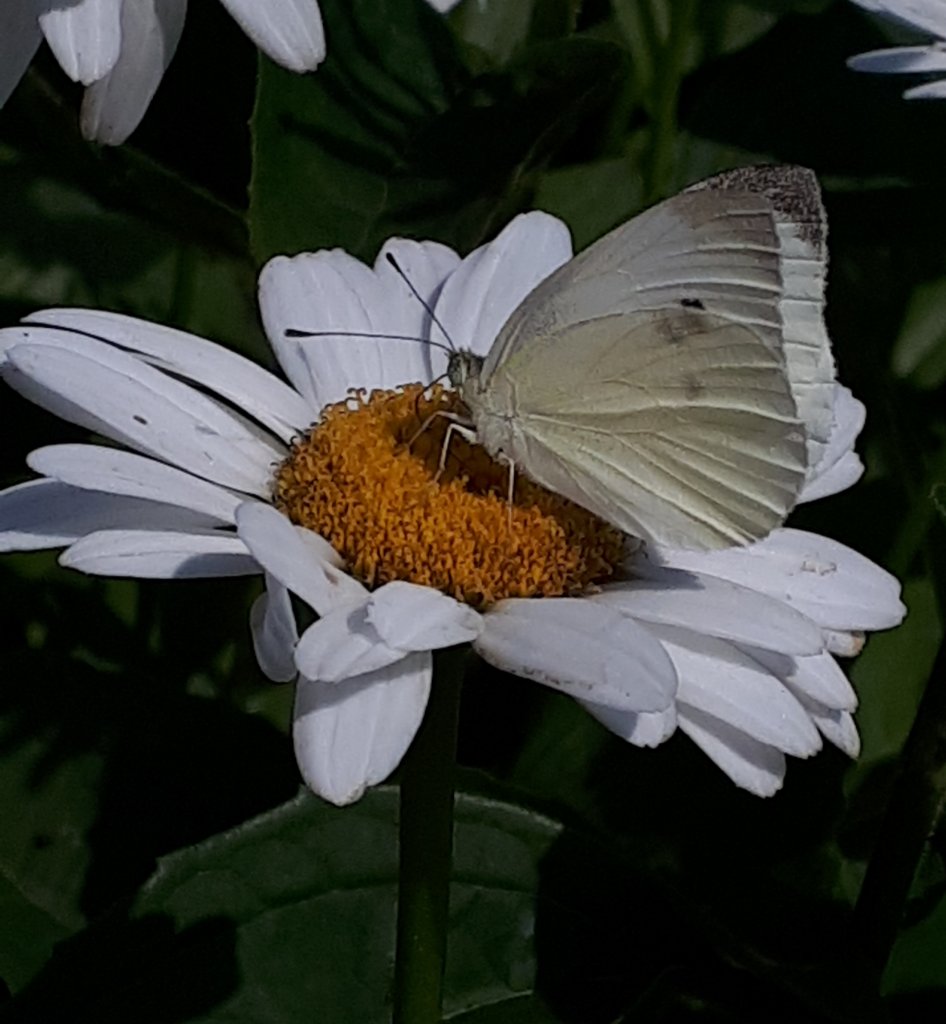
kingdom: Animalia
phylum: Arthropoda
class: Insecta
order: Lepidoptera
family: Pieridae
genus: Pieris
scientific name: Pieris rapae
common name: Cabbage White
